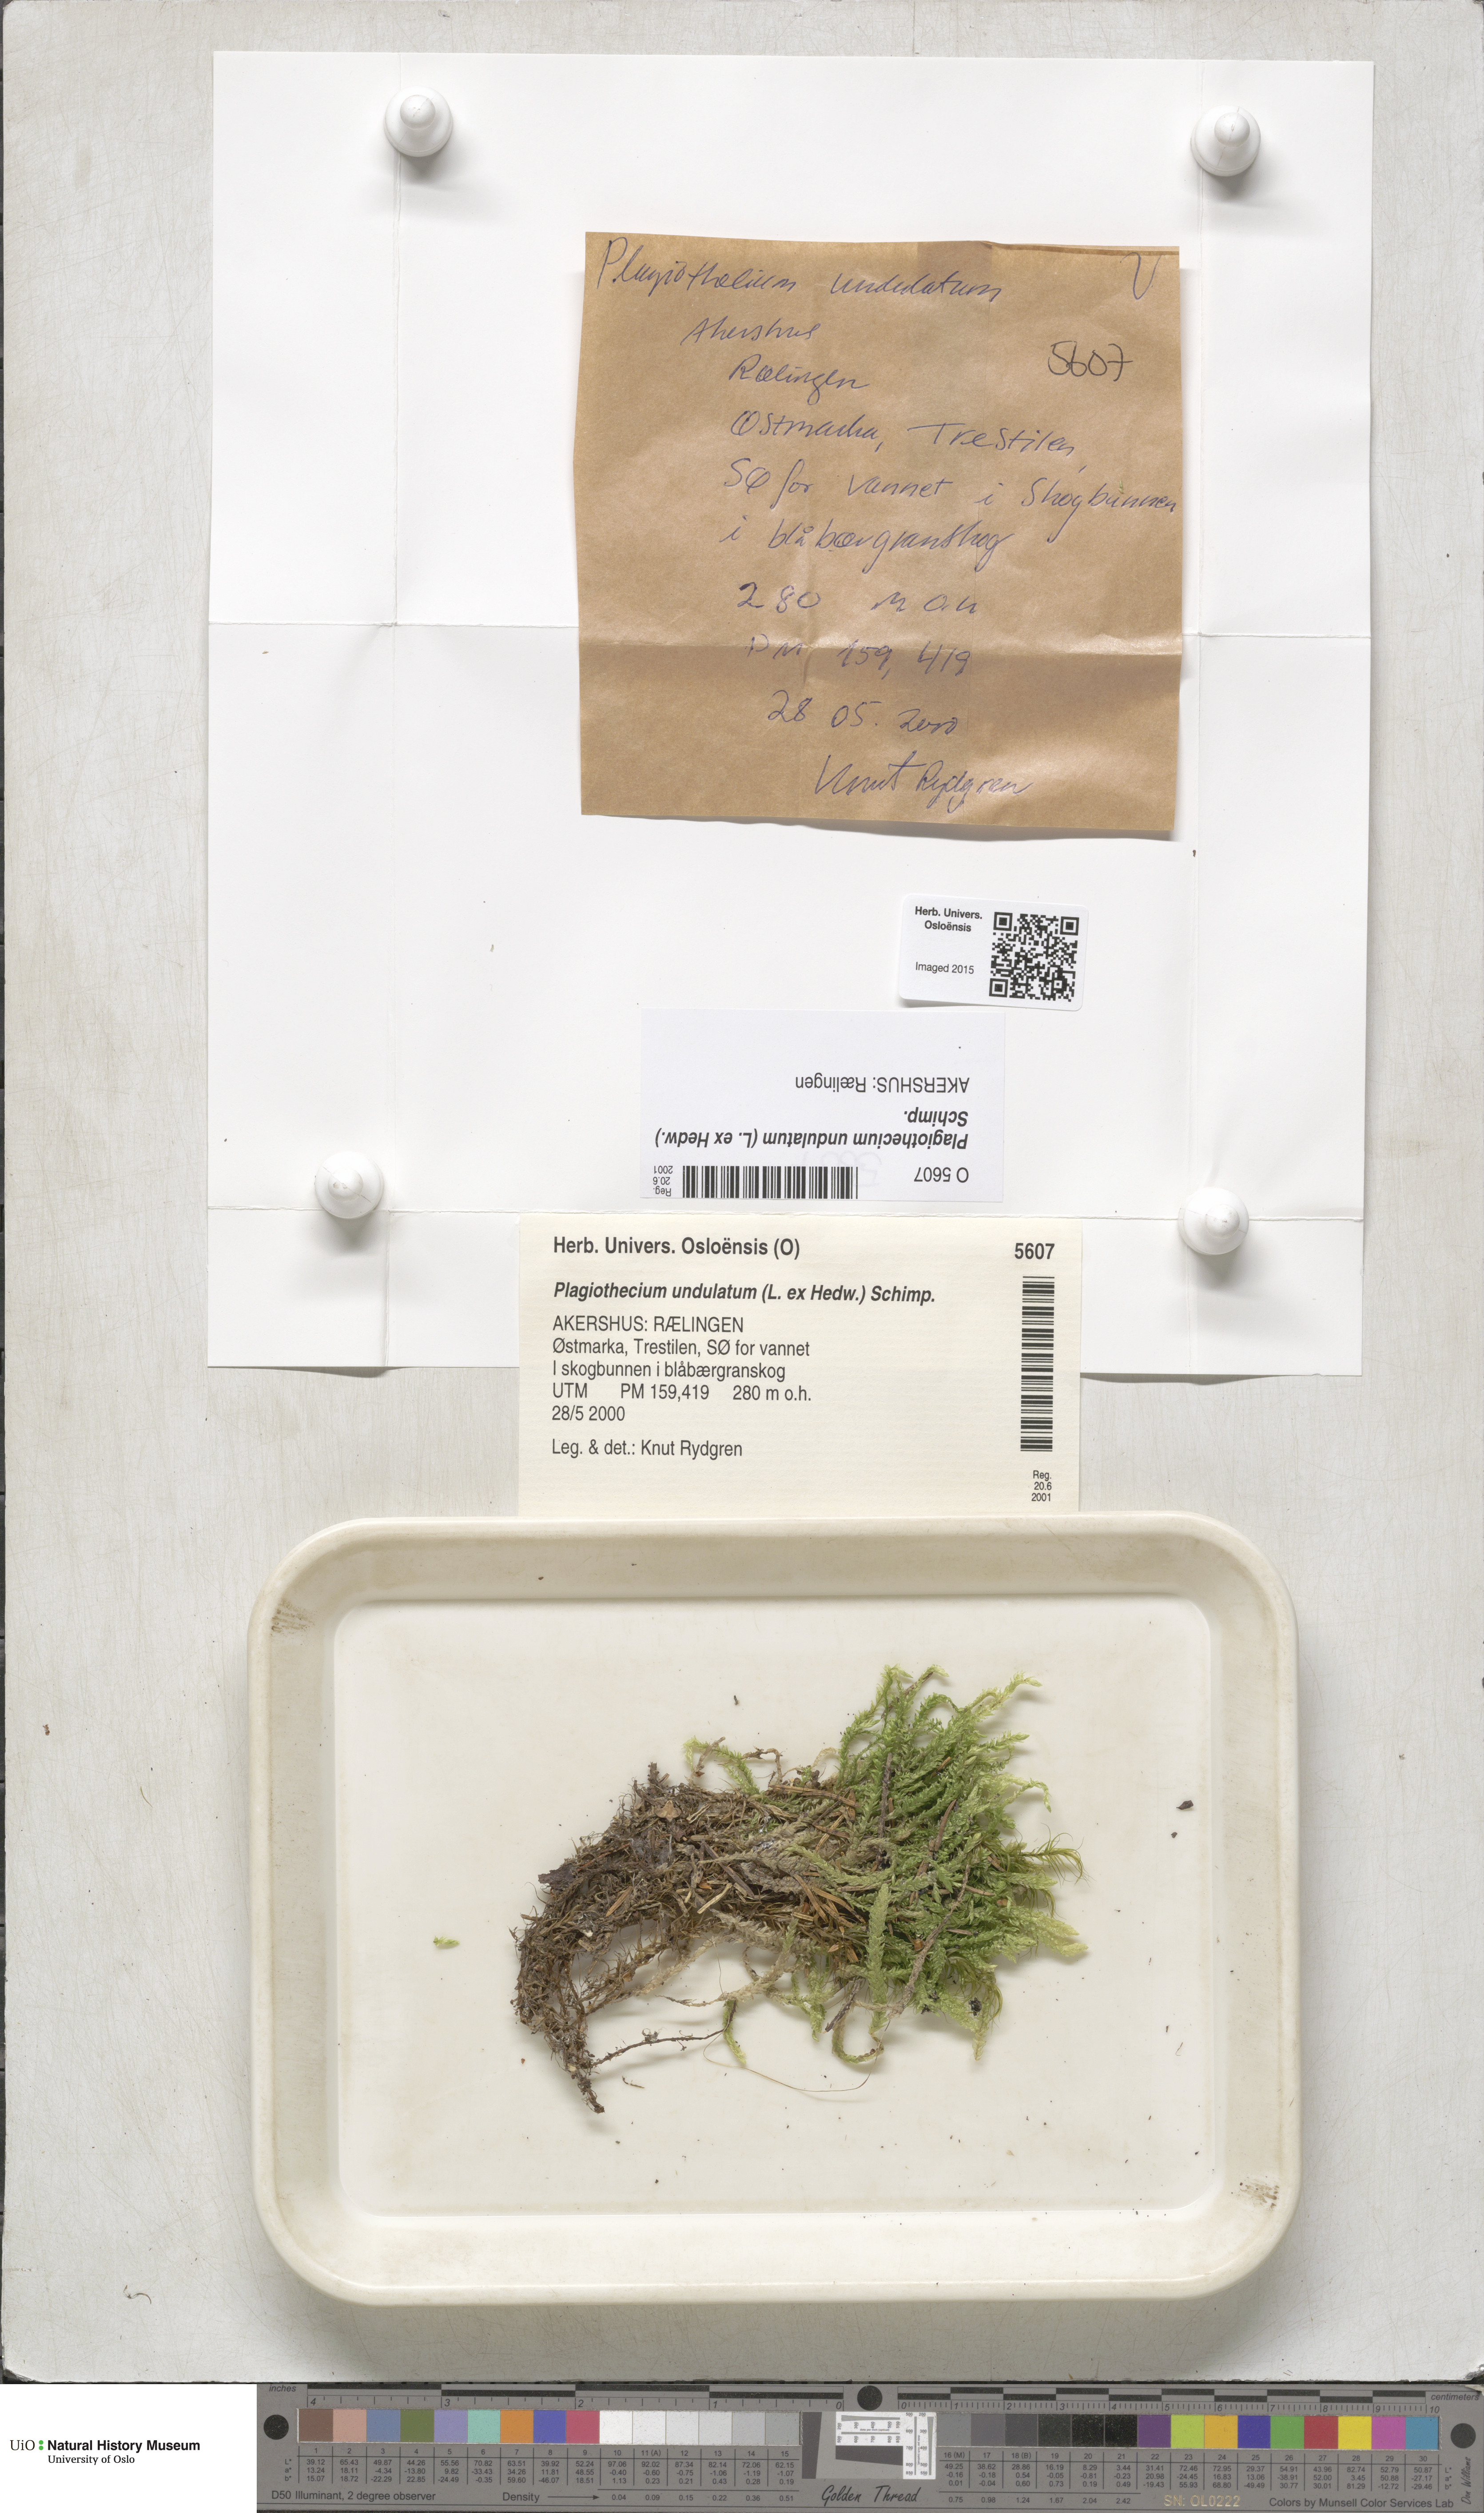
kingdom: Plantae
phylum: Bryophyta
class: Bryopsida
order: Hypnales
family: Plagiotheciaceae
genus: Plagiothecium
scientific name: Plagiothecium undulatum
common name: Waved silk-moss
